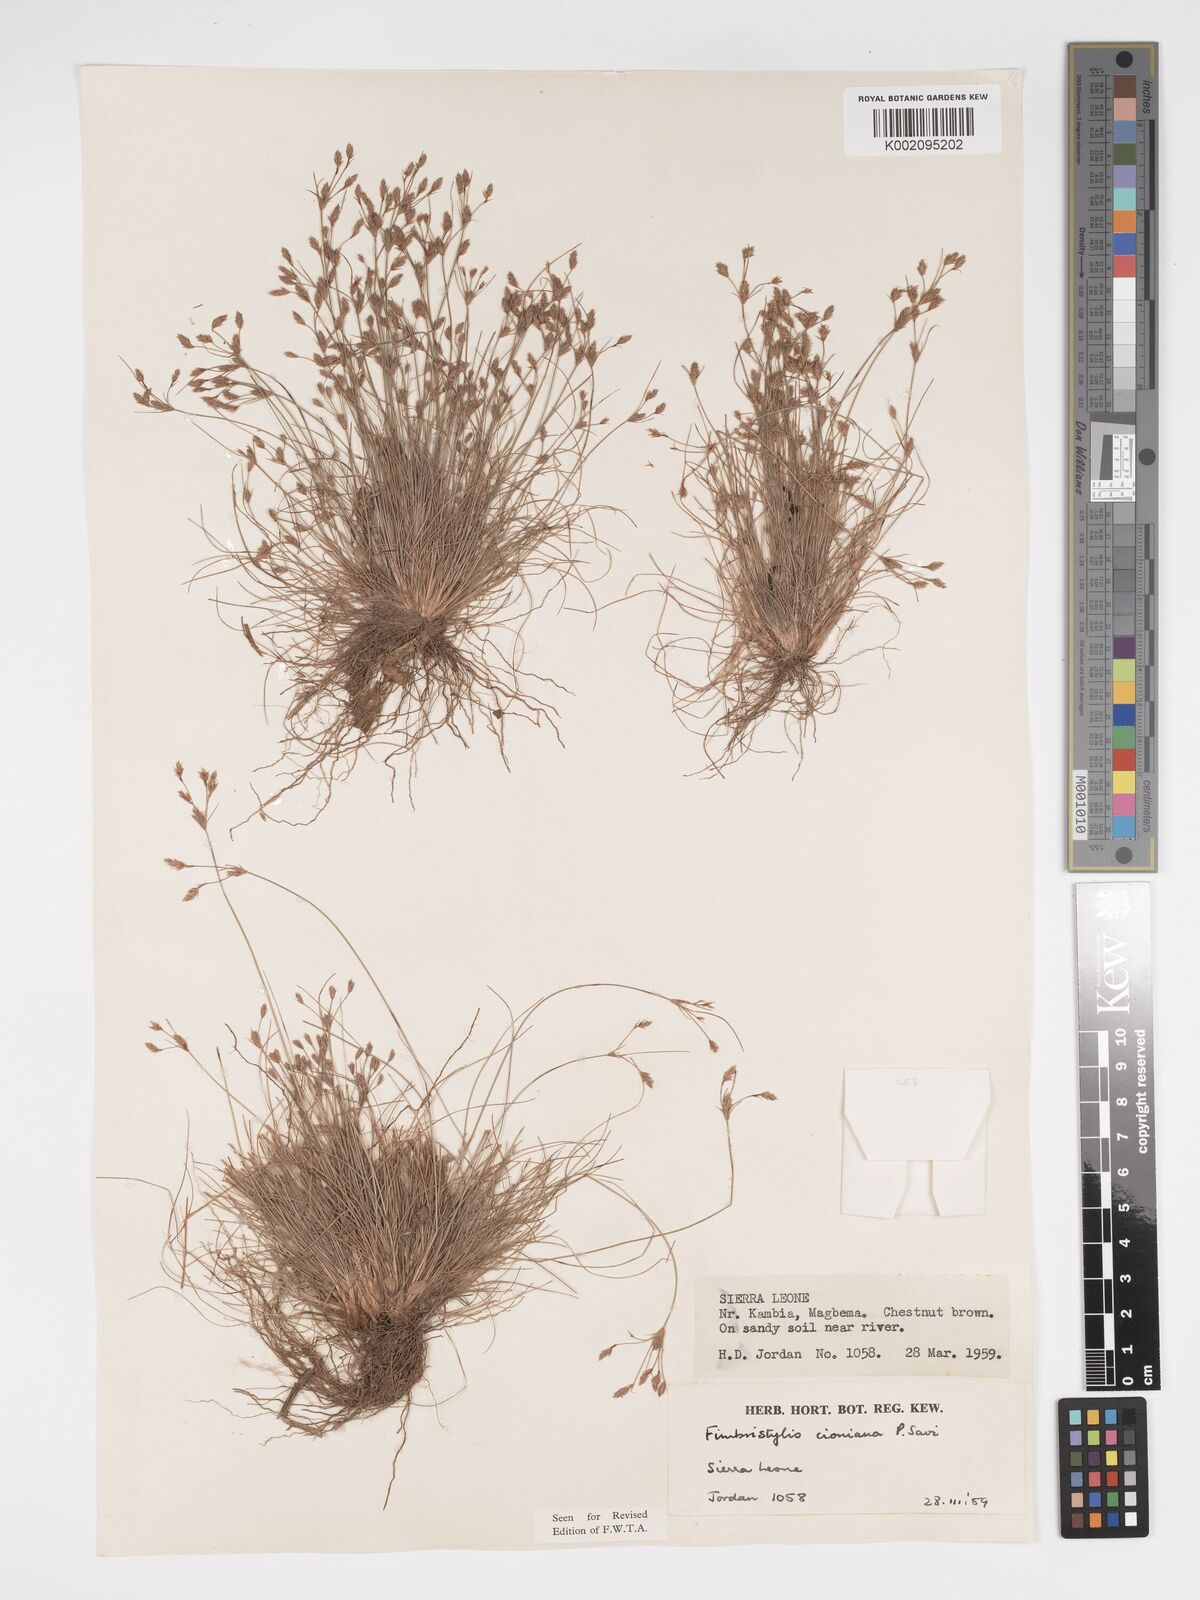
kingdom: Plantae
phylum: Tracheophyta
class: Liliopsida
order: Poales
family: Cyperaceae
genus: Bulbostylis
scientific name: Bulbostylis cioniana
